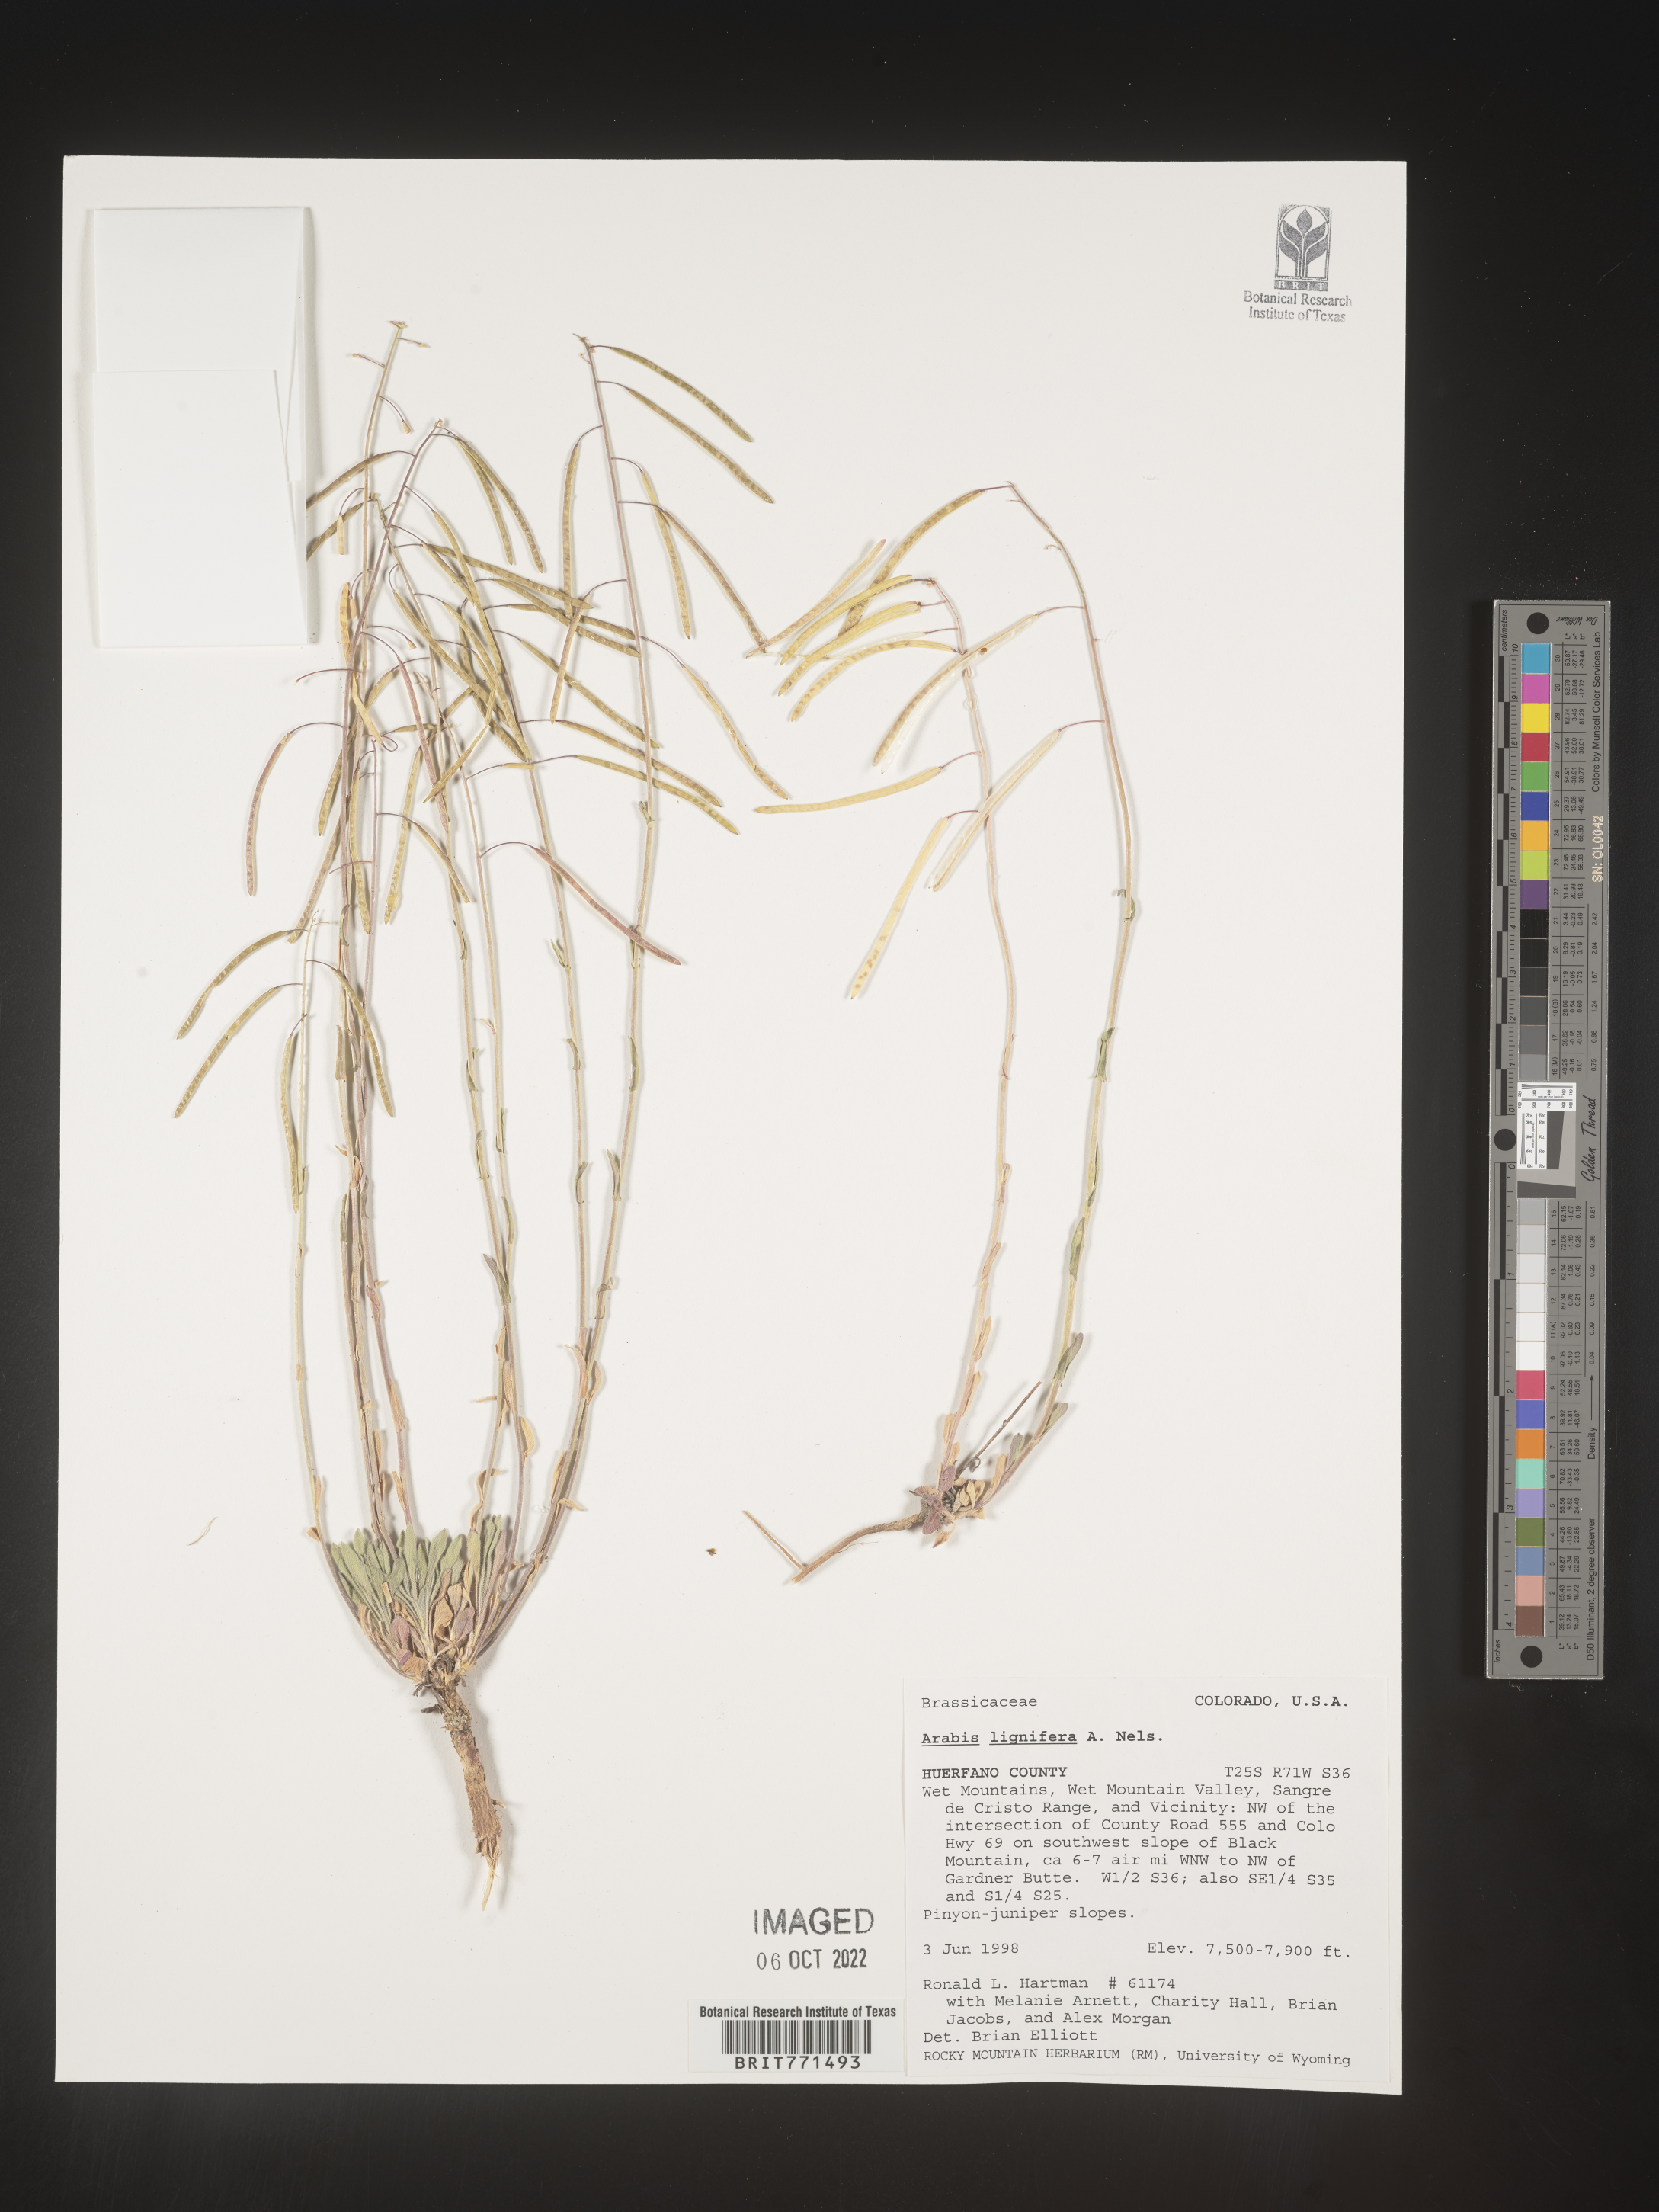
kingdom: Plantae
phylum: Tracheophyta
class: Magnoliopsida
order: Brassicales
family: Brassicaceae
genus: Arabis
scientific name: Arabis
